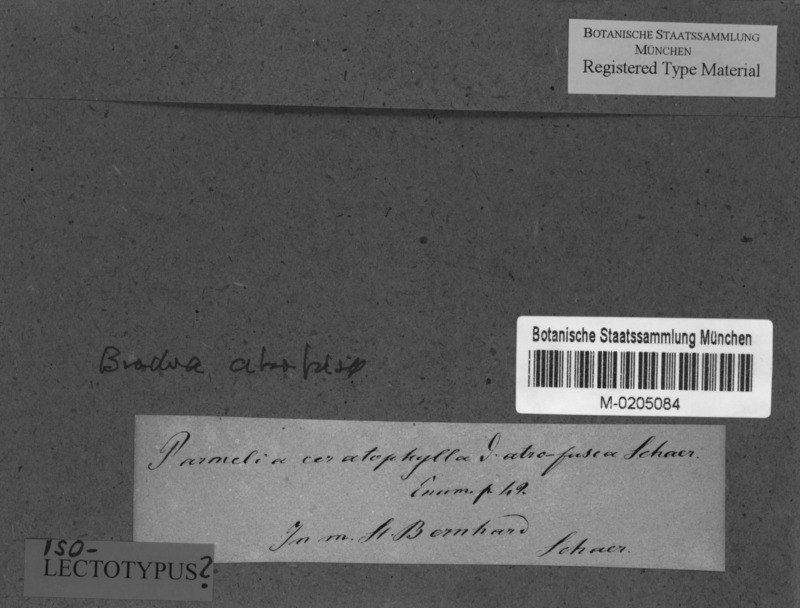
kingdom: Fungi
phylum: Ascomycota
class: Lecanoromycetes
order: Lecanorales
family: Parmeliaceae
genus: Allantoparmelia
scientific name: Allantoparmelia alpicola
